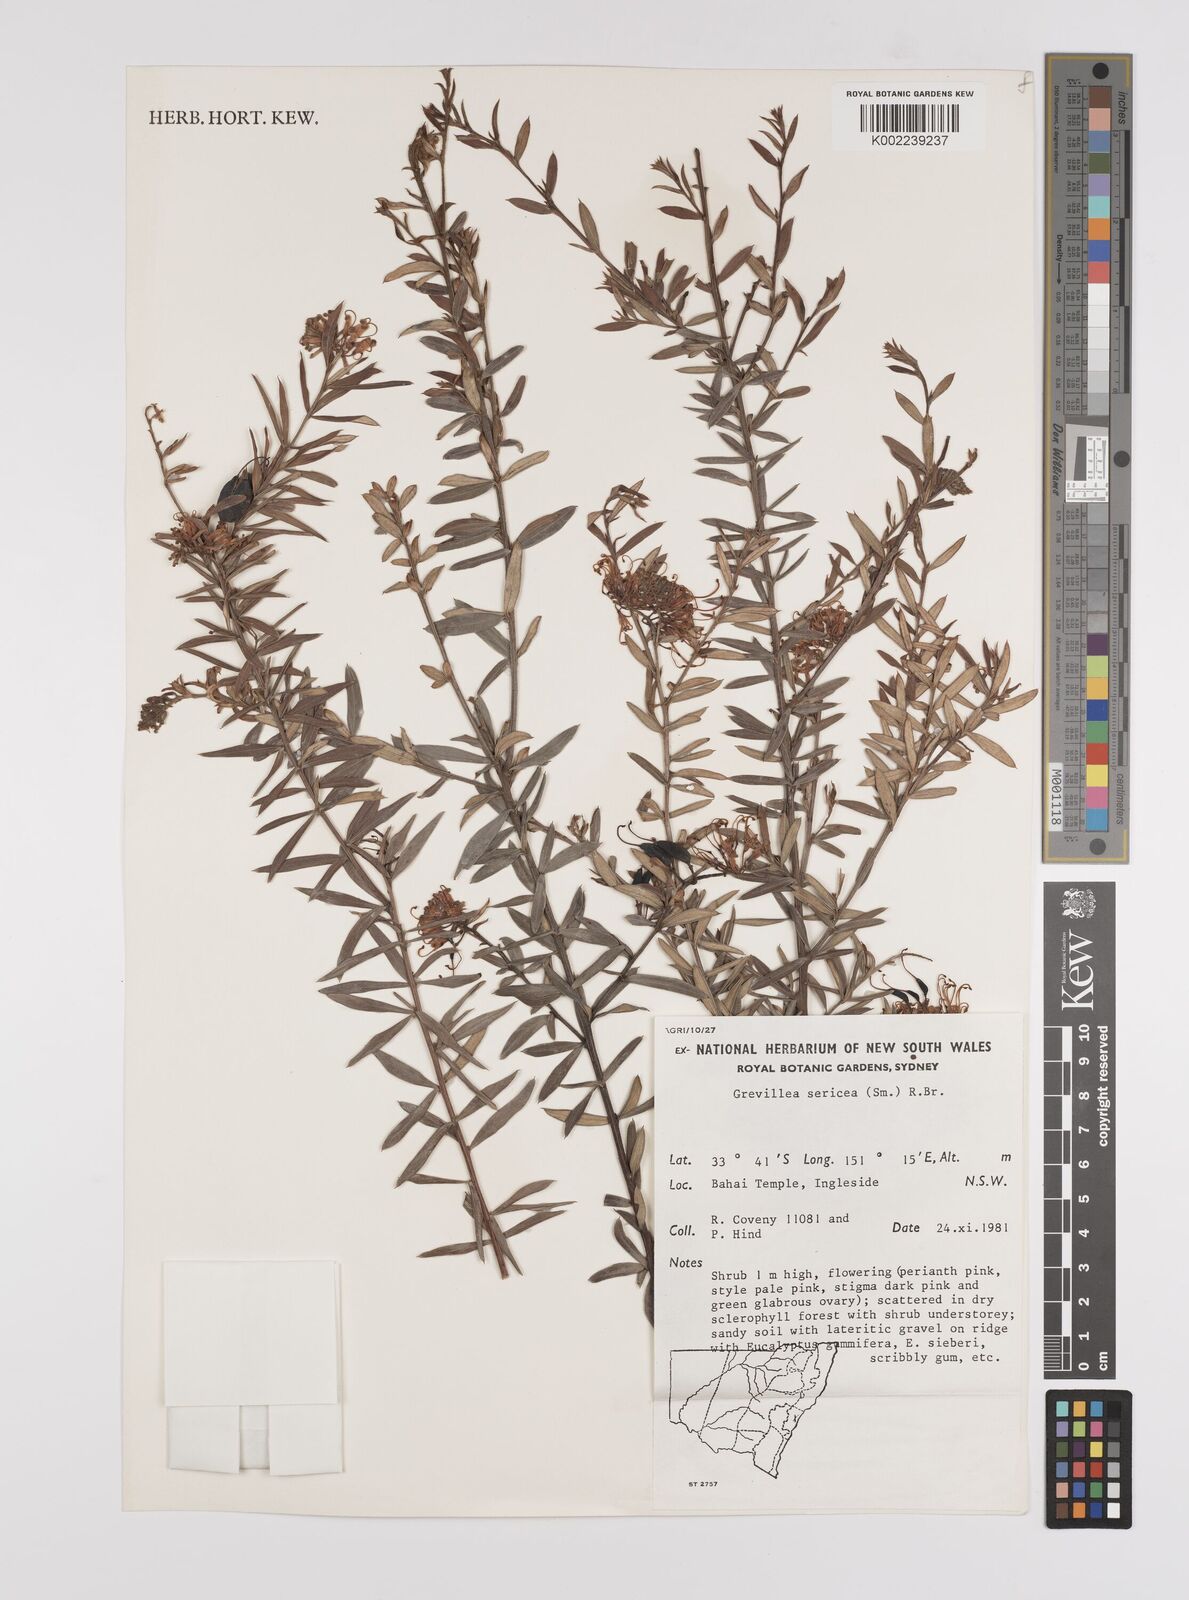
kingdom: Plantae
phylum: Tracheophyta
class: Magnoliopsida
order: Proteales
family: Proteaceae
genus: Grevillea
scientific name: Grevillea sericea
